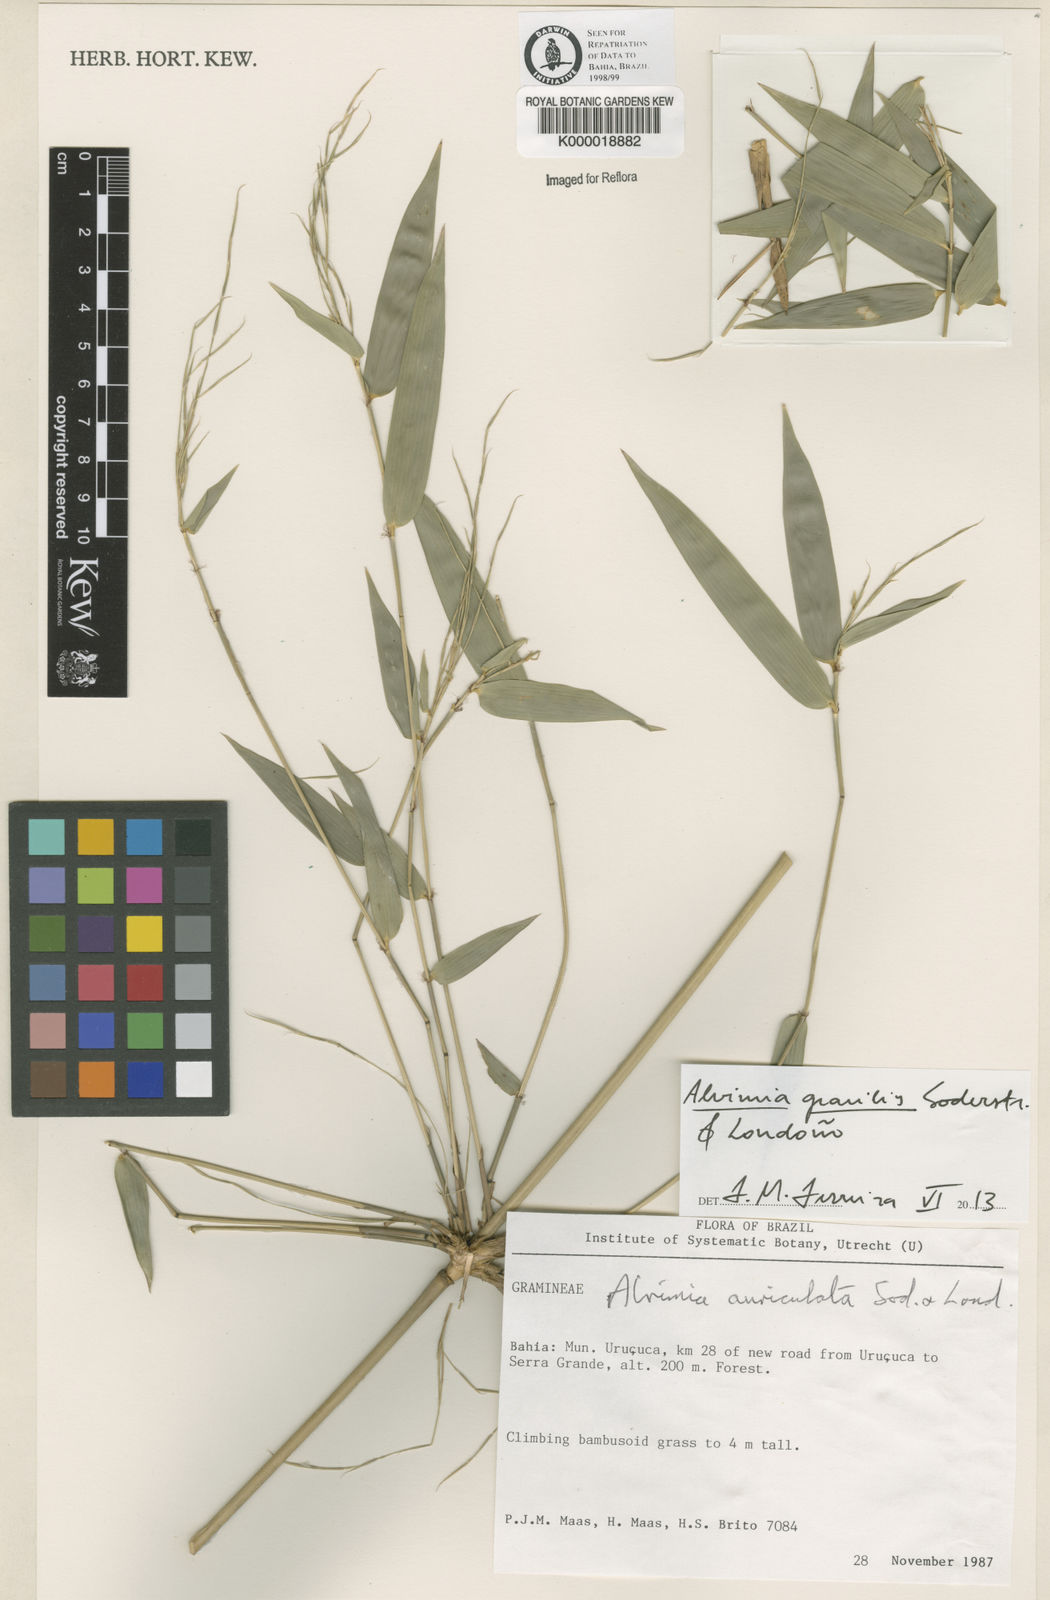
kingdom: Plantae
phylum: Tracheophyta
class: Liliopsida
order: Poales
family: Poaceae
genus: Alvimia
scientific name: Alvimia
